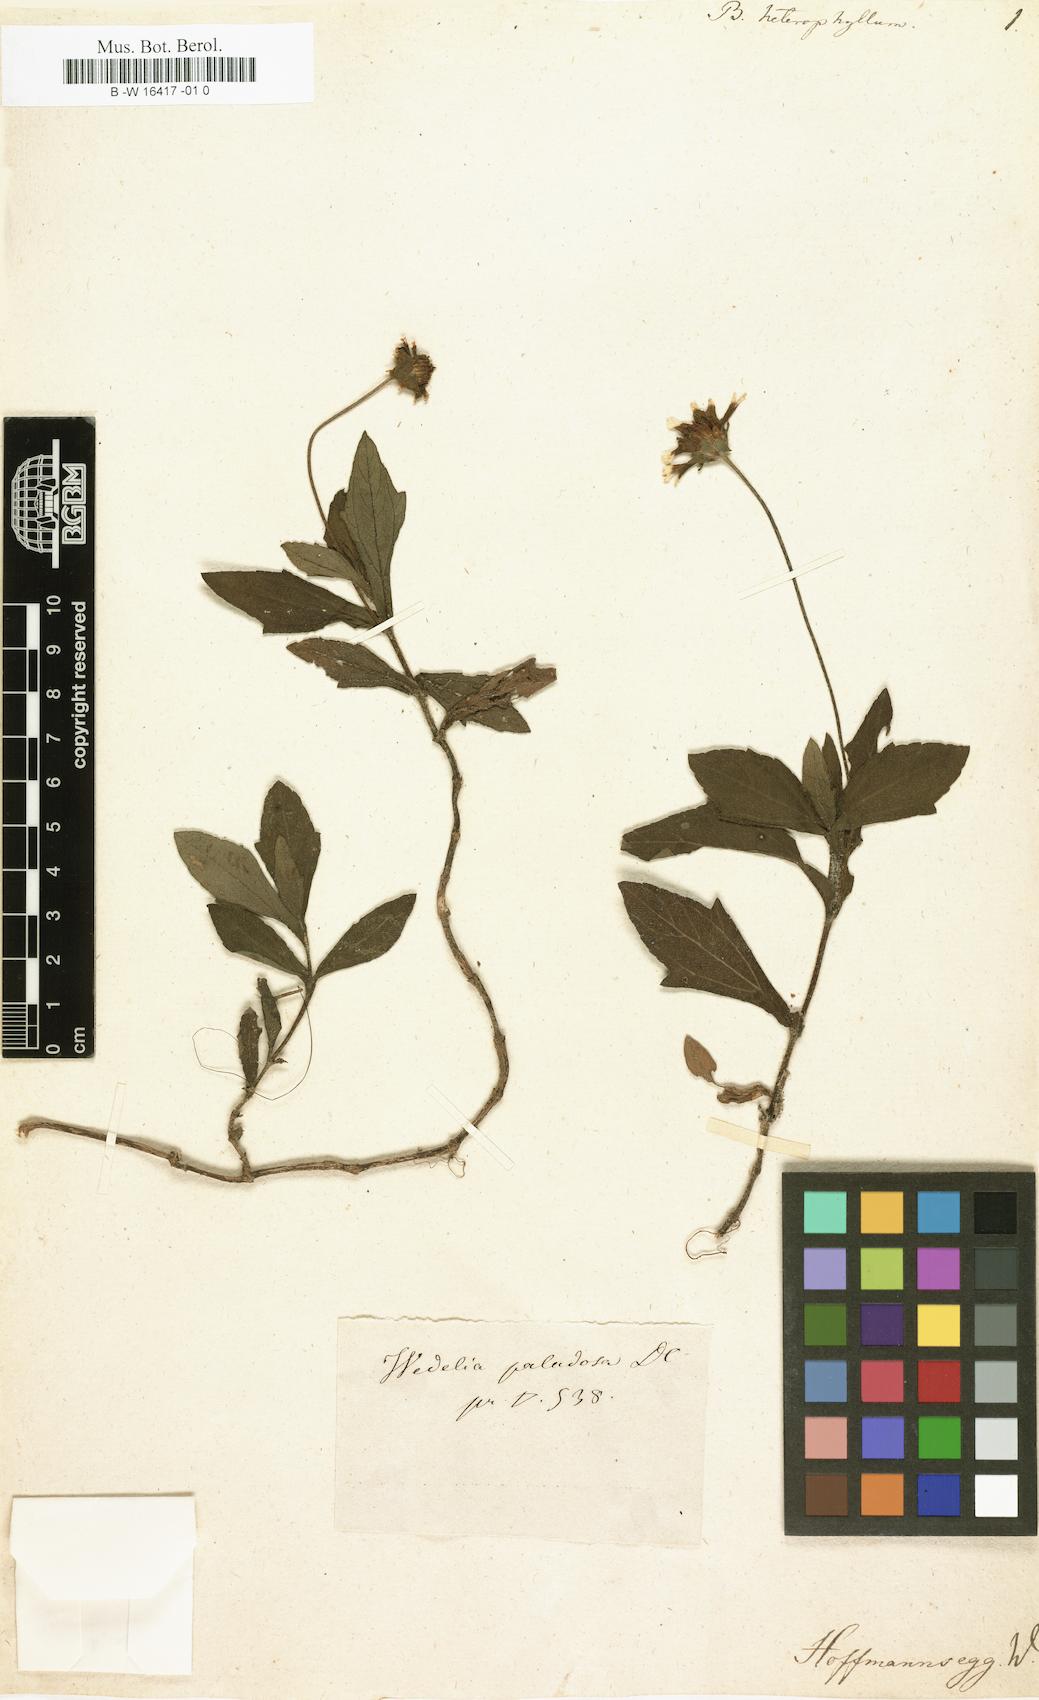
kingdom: Plantae
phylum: Tracheophyta
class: Magnoliopsida
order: Asterales
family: Asteraceae
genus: Sphagneticola
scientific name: Sphagneticola trilobata
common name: Bay biscayne creeping-oxeye
